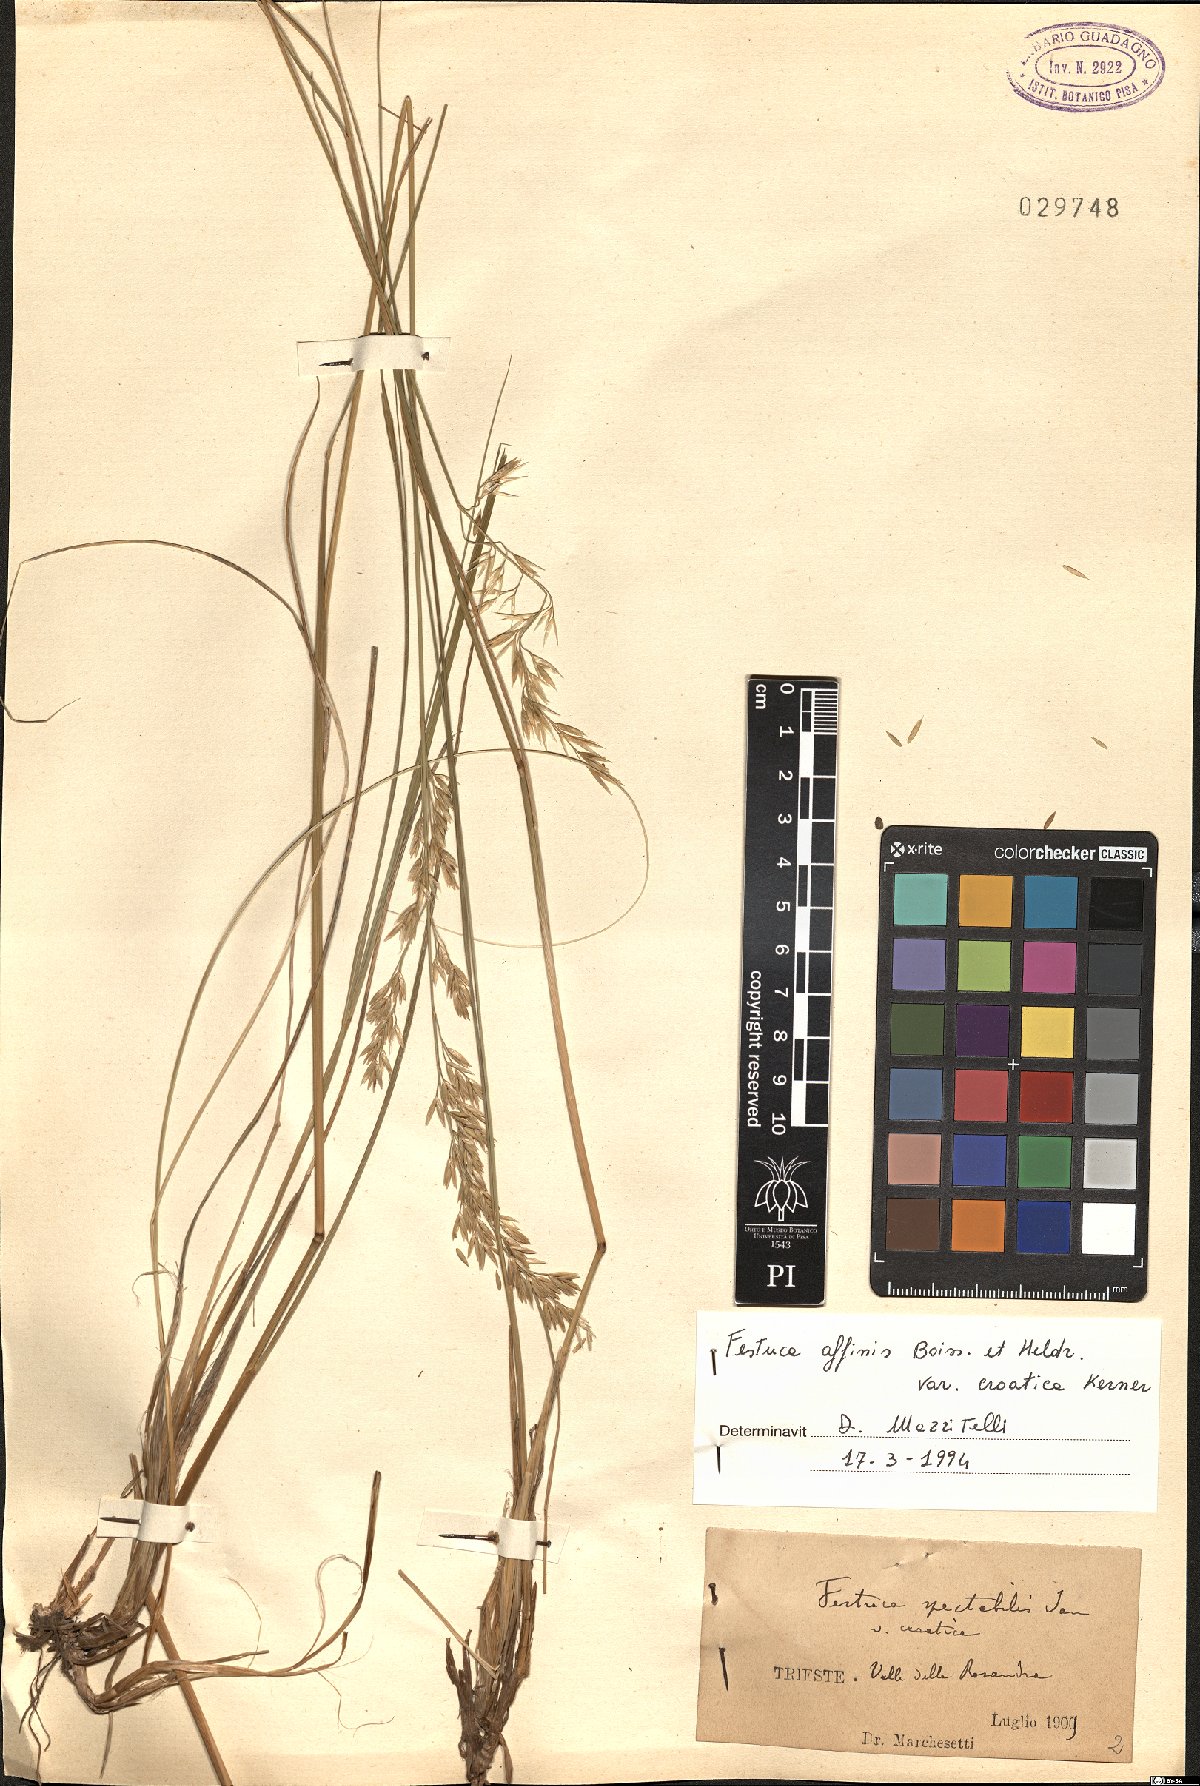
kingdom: Plantae
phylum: Tracheophyta
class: Liliopsida
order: Poales
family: Poaceae
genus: Festuca
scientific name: Festuca spectabilis
